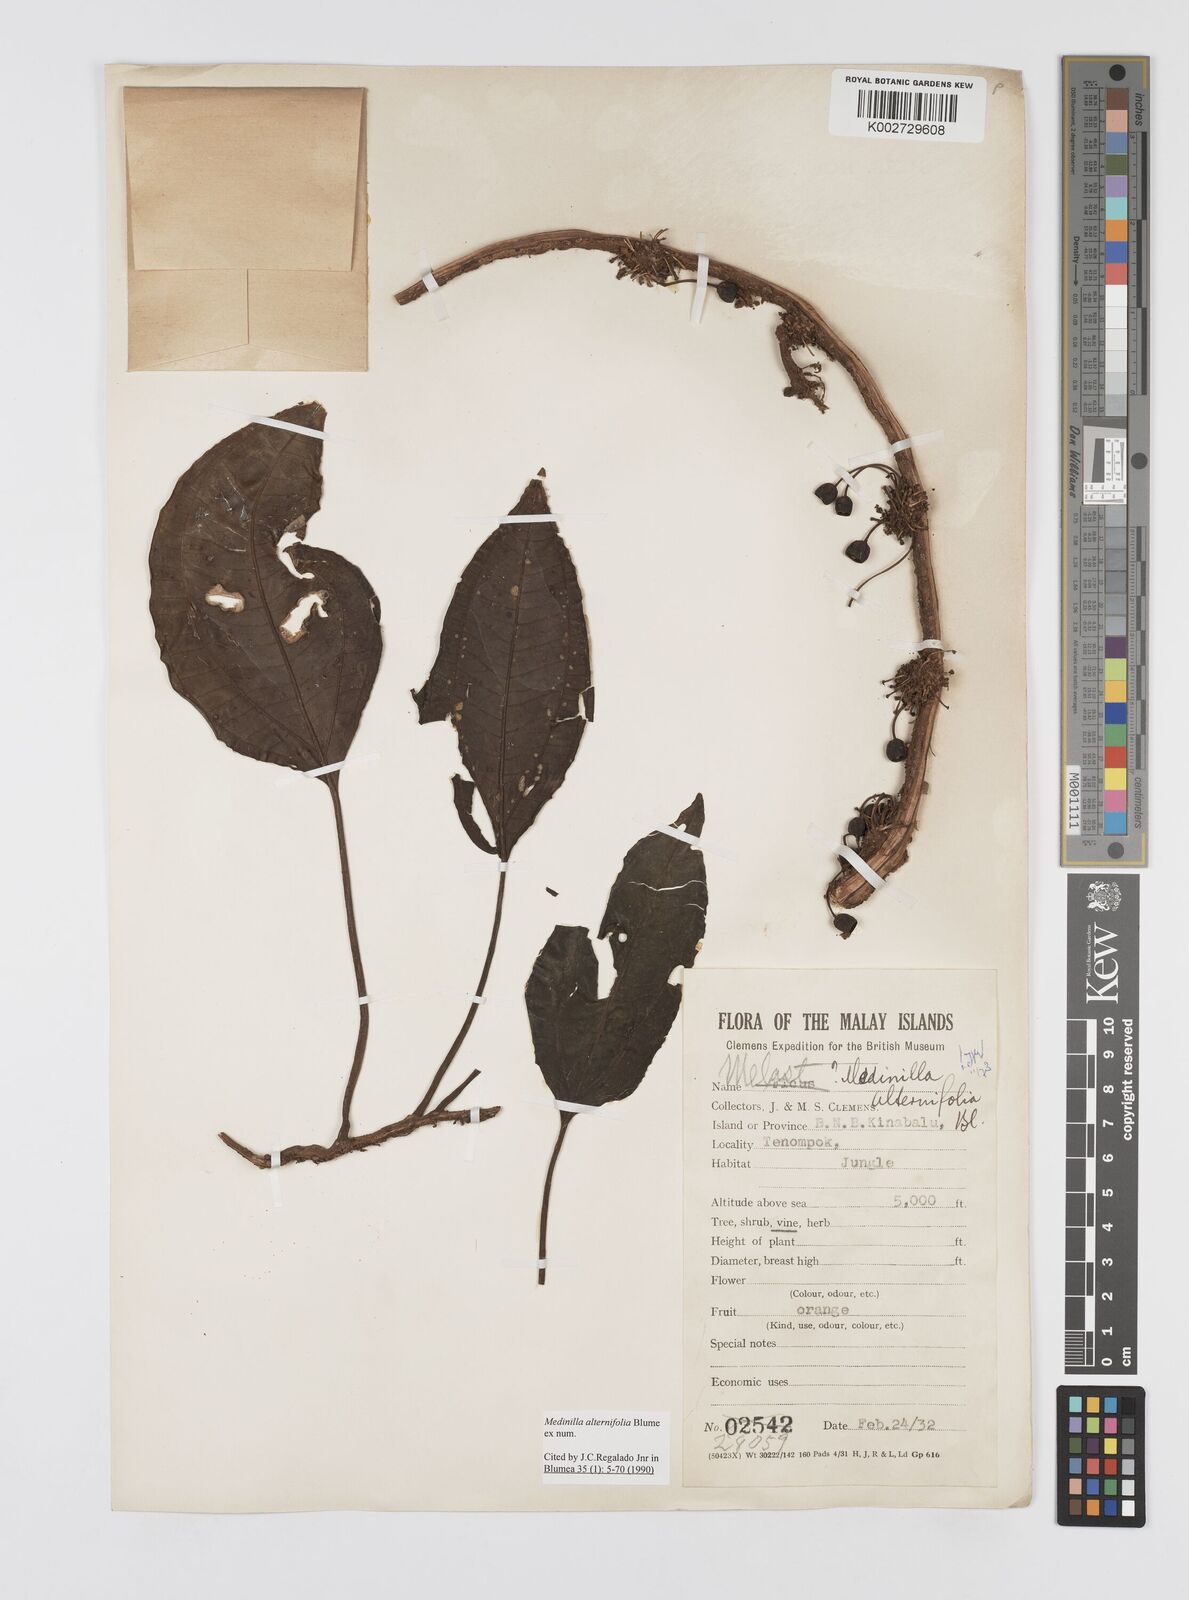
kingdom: Plantae
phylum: Tracheophyta
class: Magnoliopsida
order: Myrtales
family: Melastomataceae
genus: Heteroblemma
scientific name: Heteroblemma alternifolium
